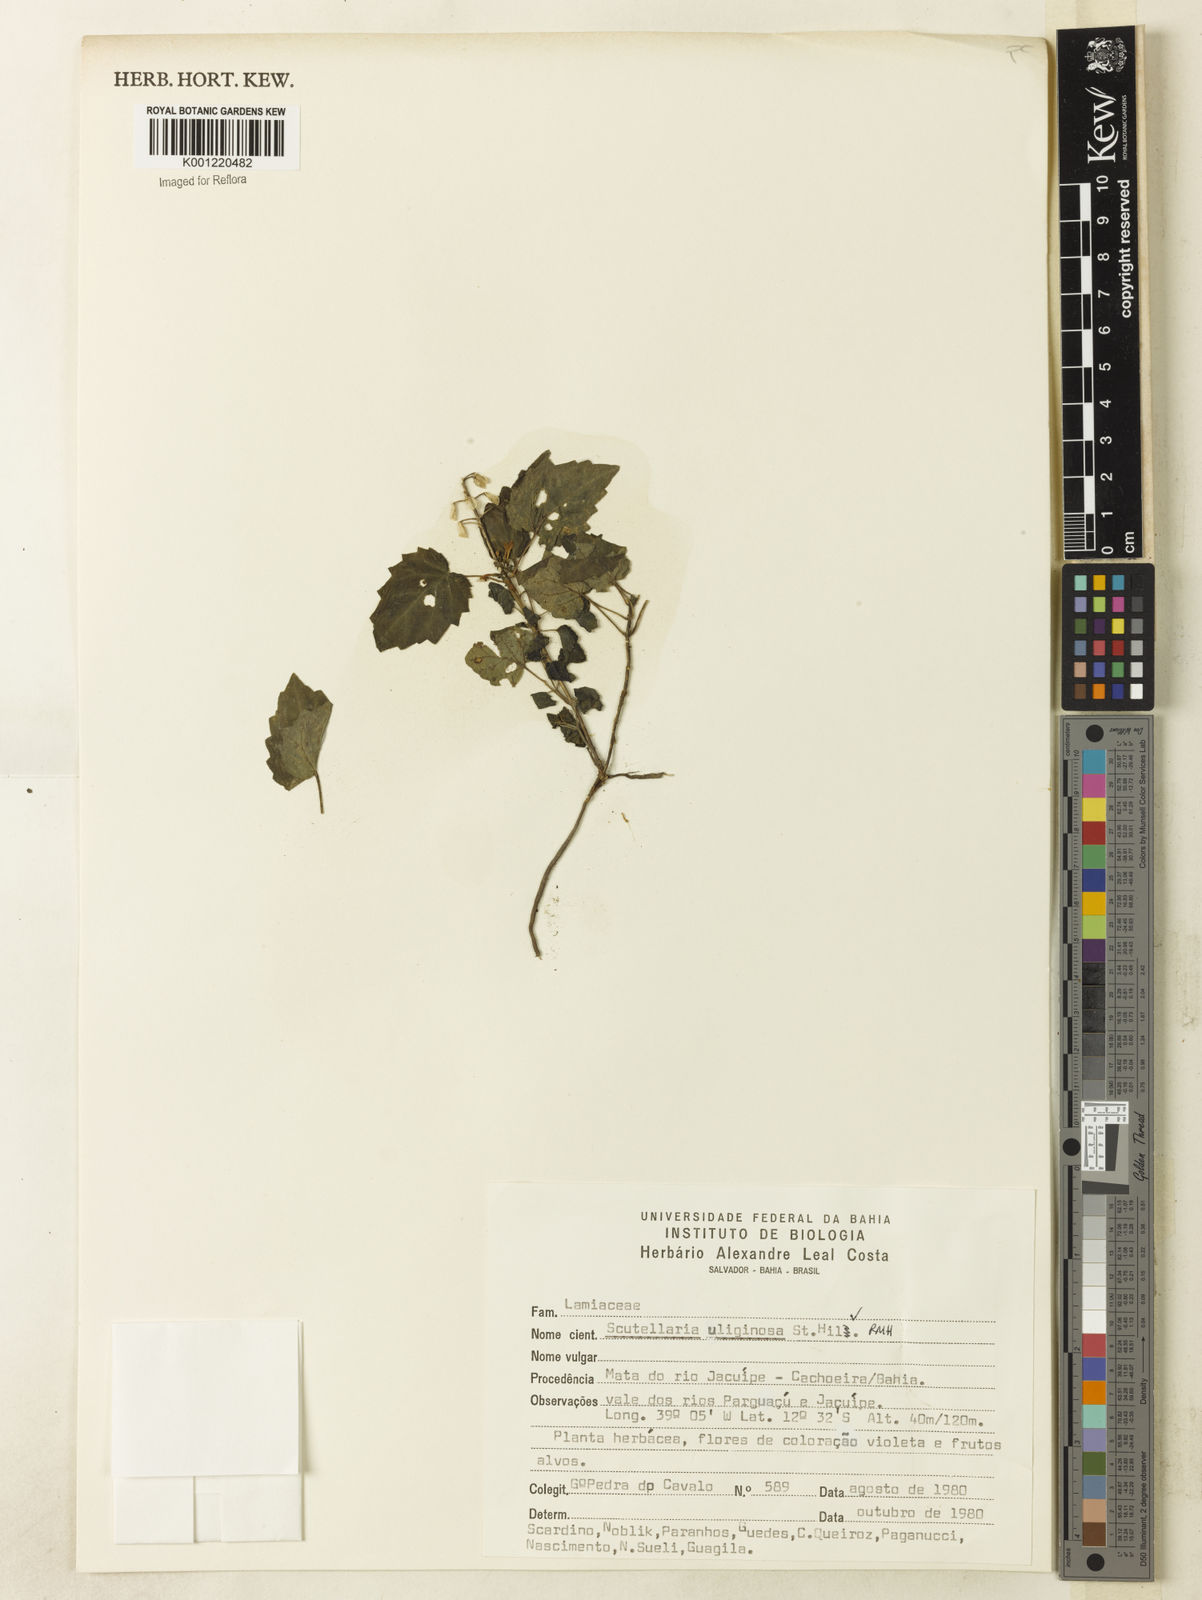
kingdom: Plantae
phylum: Tracheophyta
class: Magnoliopsida
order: Lamiales
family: Lamiaceae
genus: Scutellaria
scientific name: Scutellaria uliginosa
